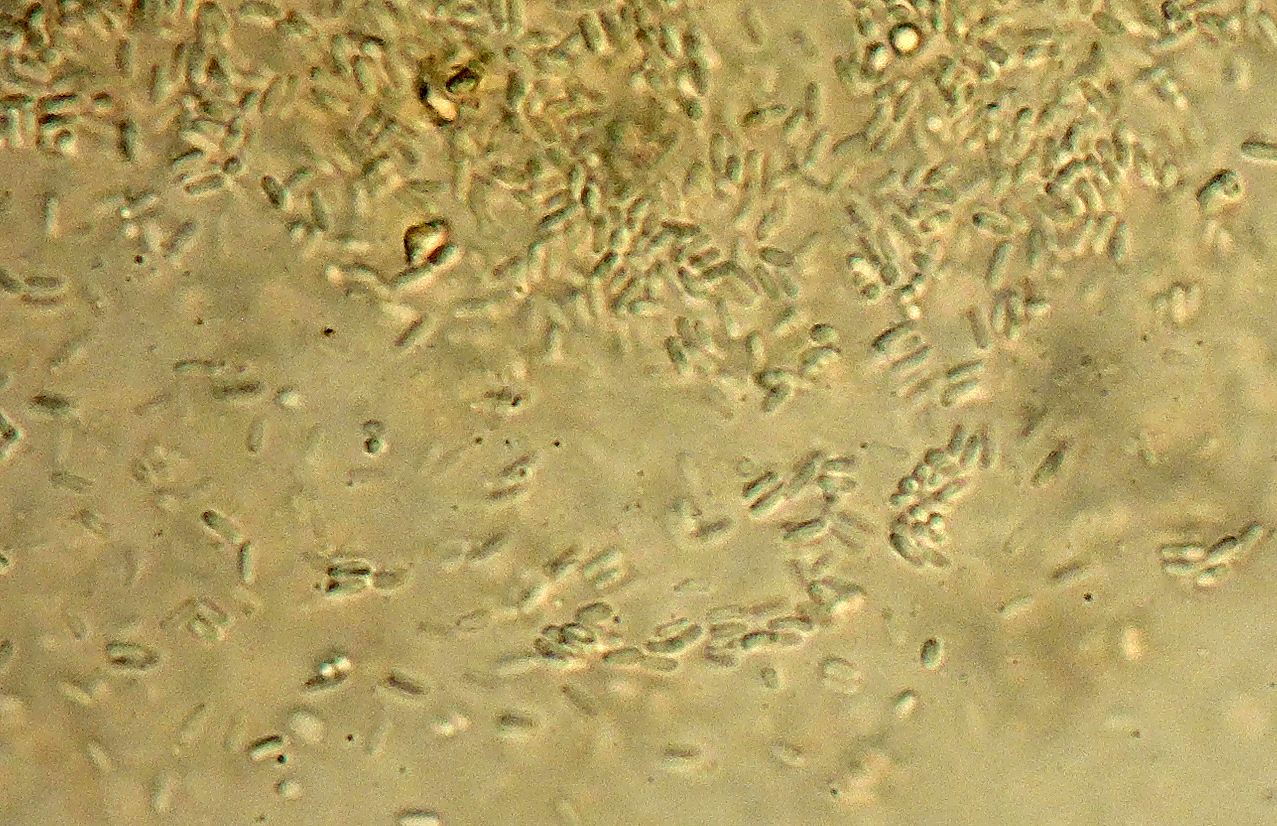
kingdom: Fungi
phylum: Ascomycota
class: Dothideomycetes
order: Pleosporales
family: Didymellaceae
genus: Phoma
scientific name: Phoma minutula
